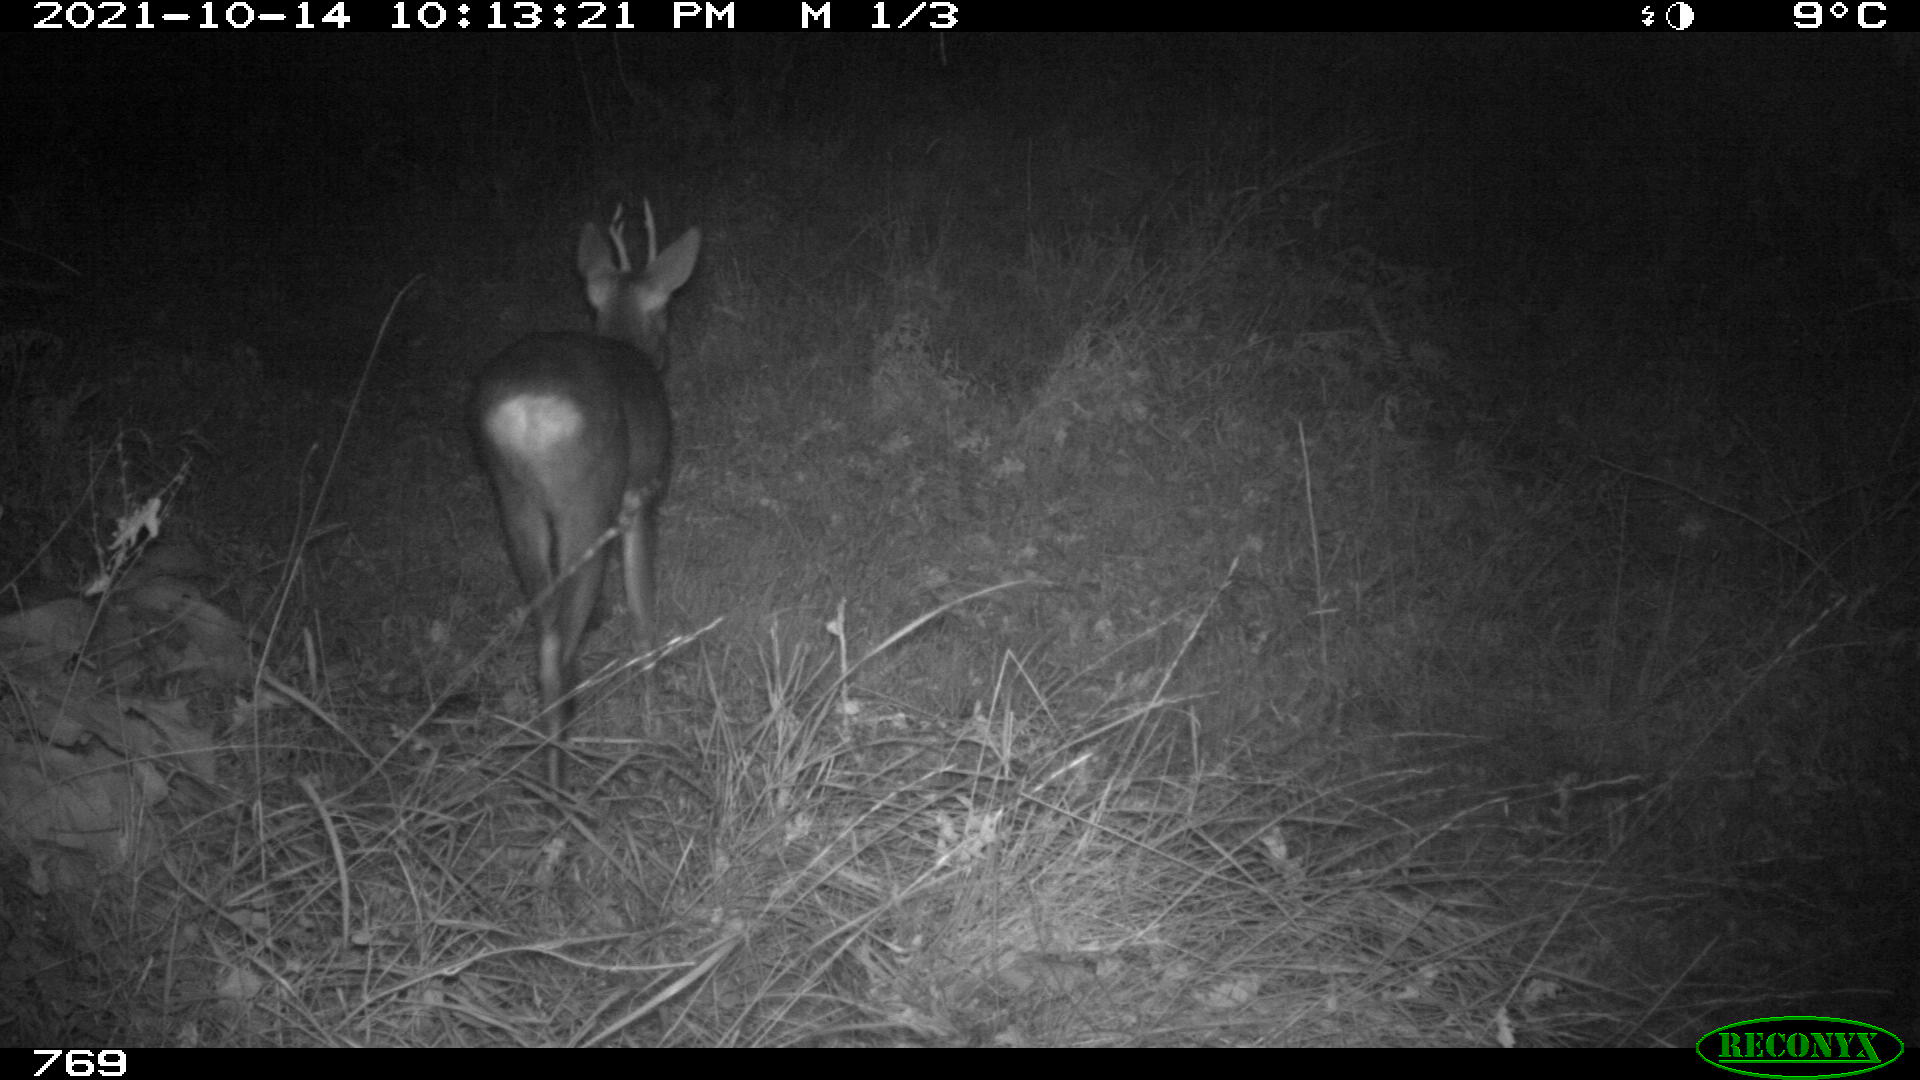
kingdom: Animalia
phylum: Chordata
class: Mammalia
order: Artiodactyla
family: Cervidae
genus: Capreolus
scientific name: Capreolus capreolus
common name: Western roe deer
